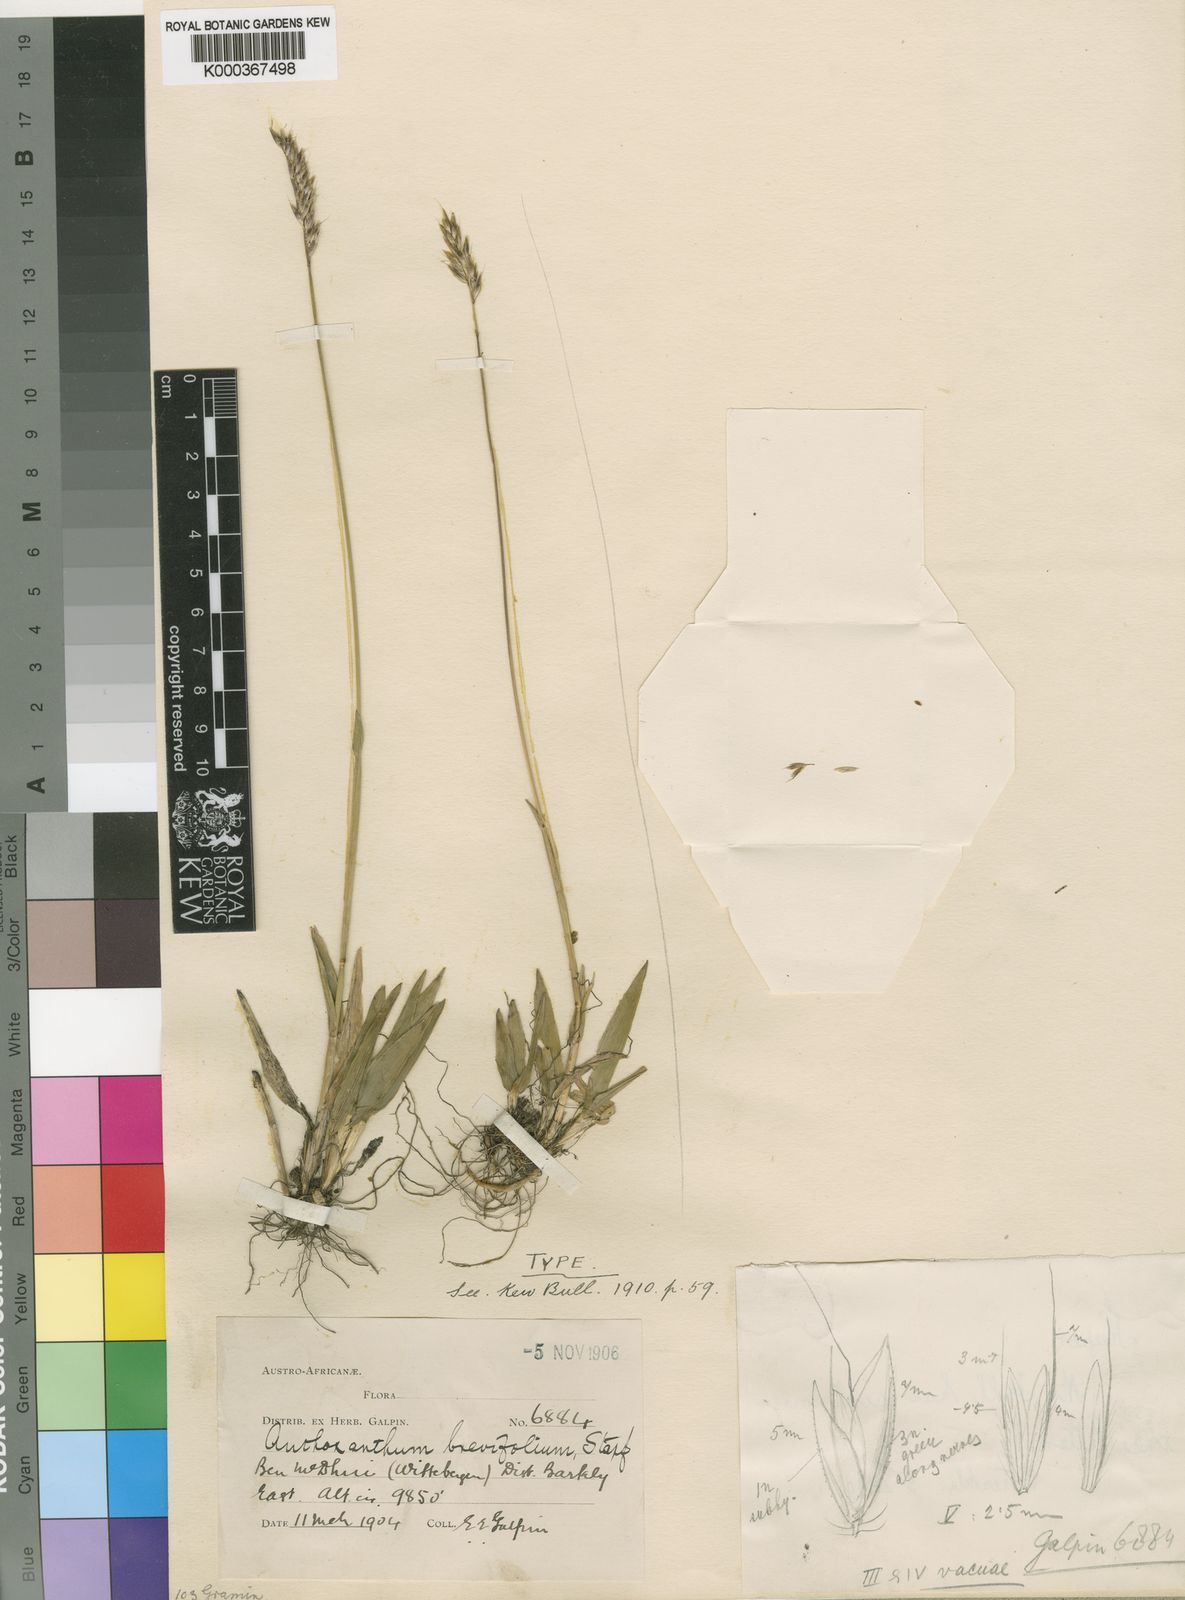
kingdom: Plantae
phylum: Tracheophyta
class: Liliopsida
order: Poales
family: Poaceae
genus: Anthoxanthum
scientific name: Anthoxanthum brevifolium
